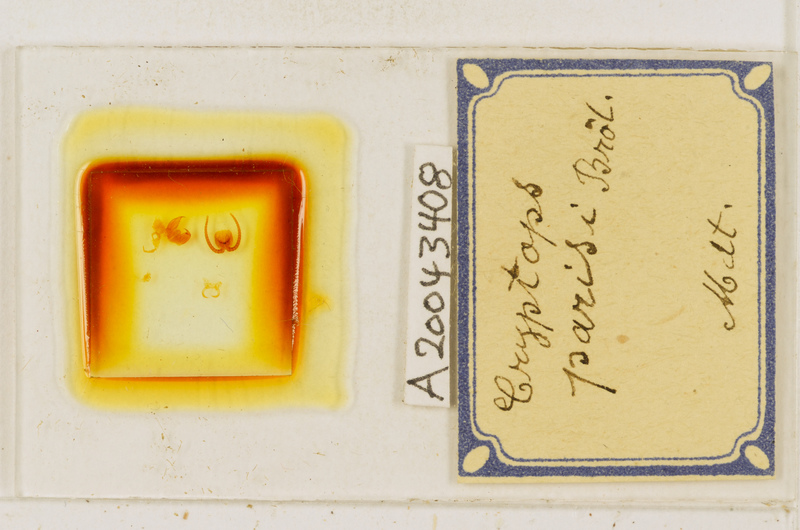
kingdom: Animalia
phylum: Arthropoda
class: Chilopoda
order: Scolopendromorpha
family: Cryptopidae
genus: Cryptops
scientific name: Cryptops parisi
